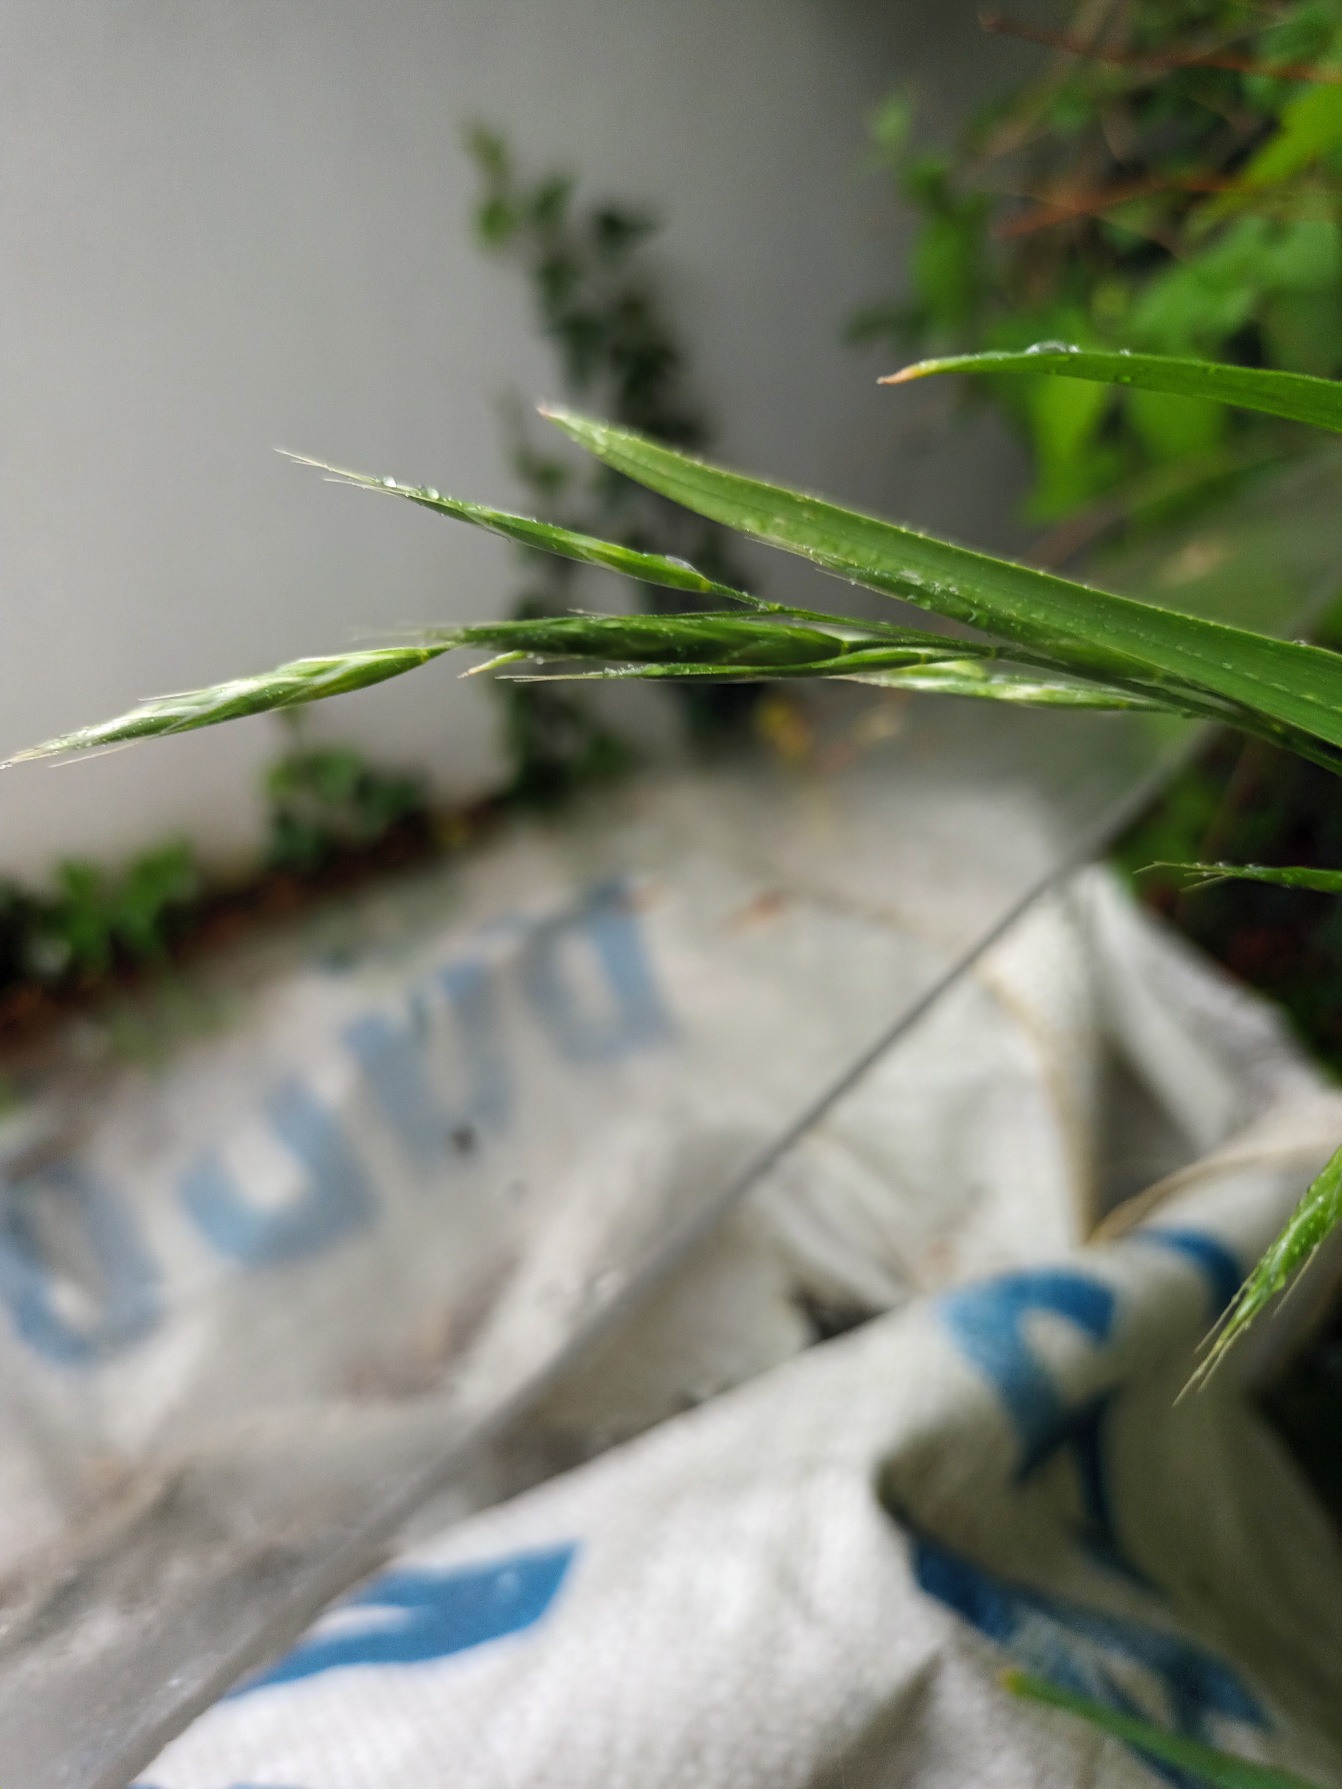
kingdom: Plantae
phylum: Tracheophyta
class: Liliopsida
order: Poales
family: Poaceae
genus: Bromus
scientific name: Bromus sitchensis
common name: Sitka-hejre
